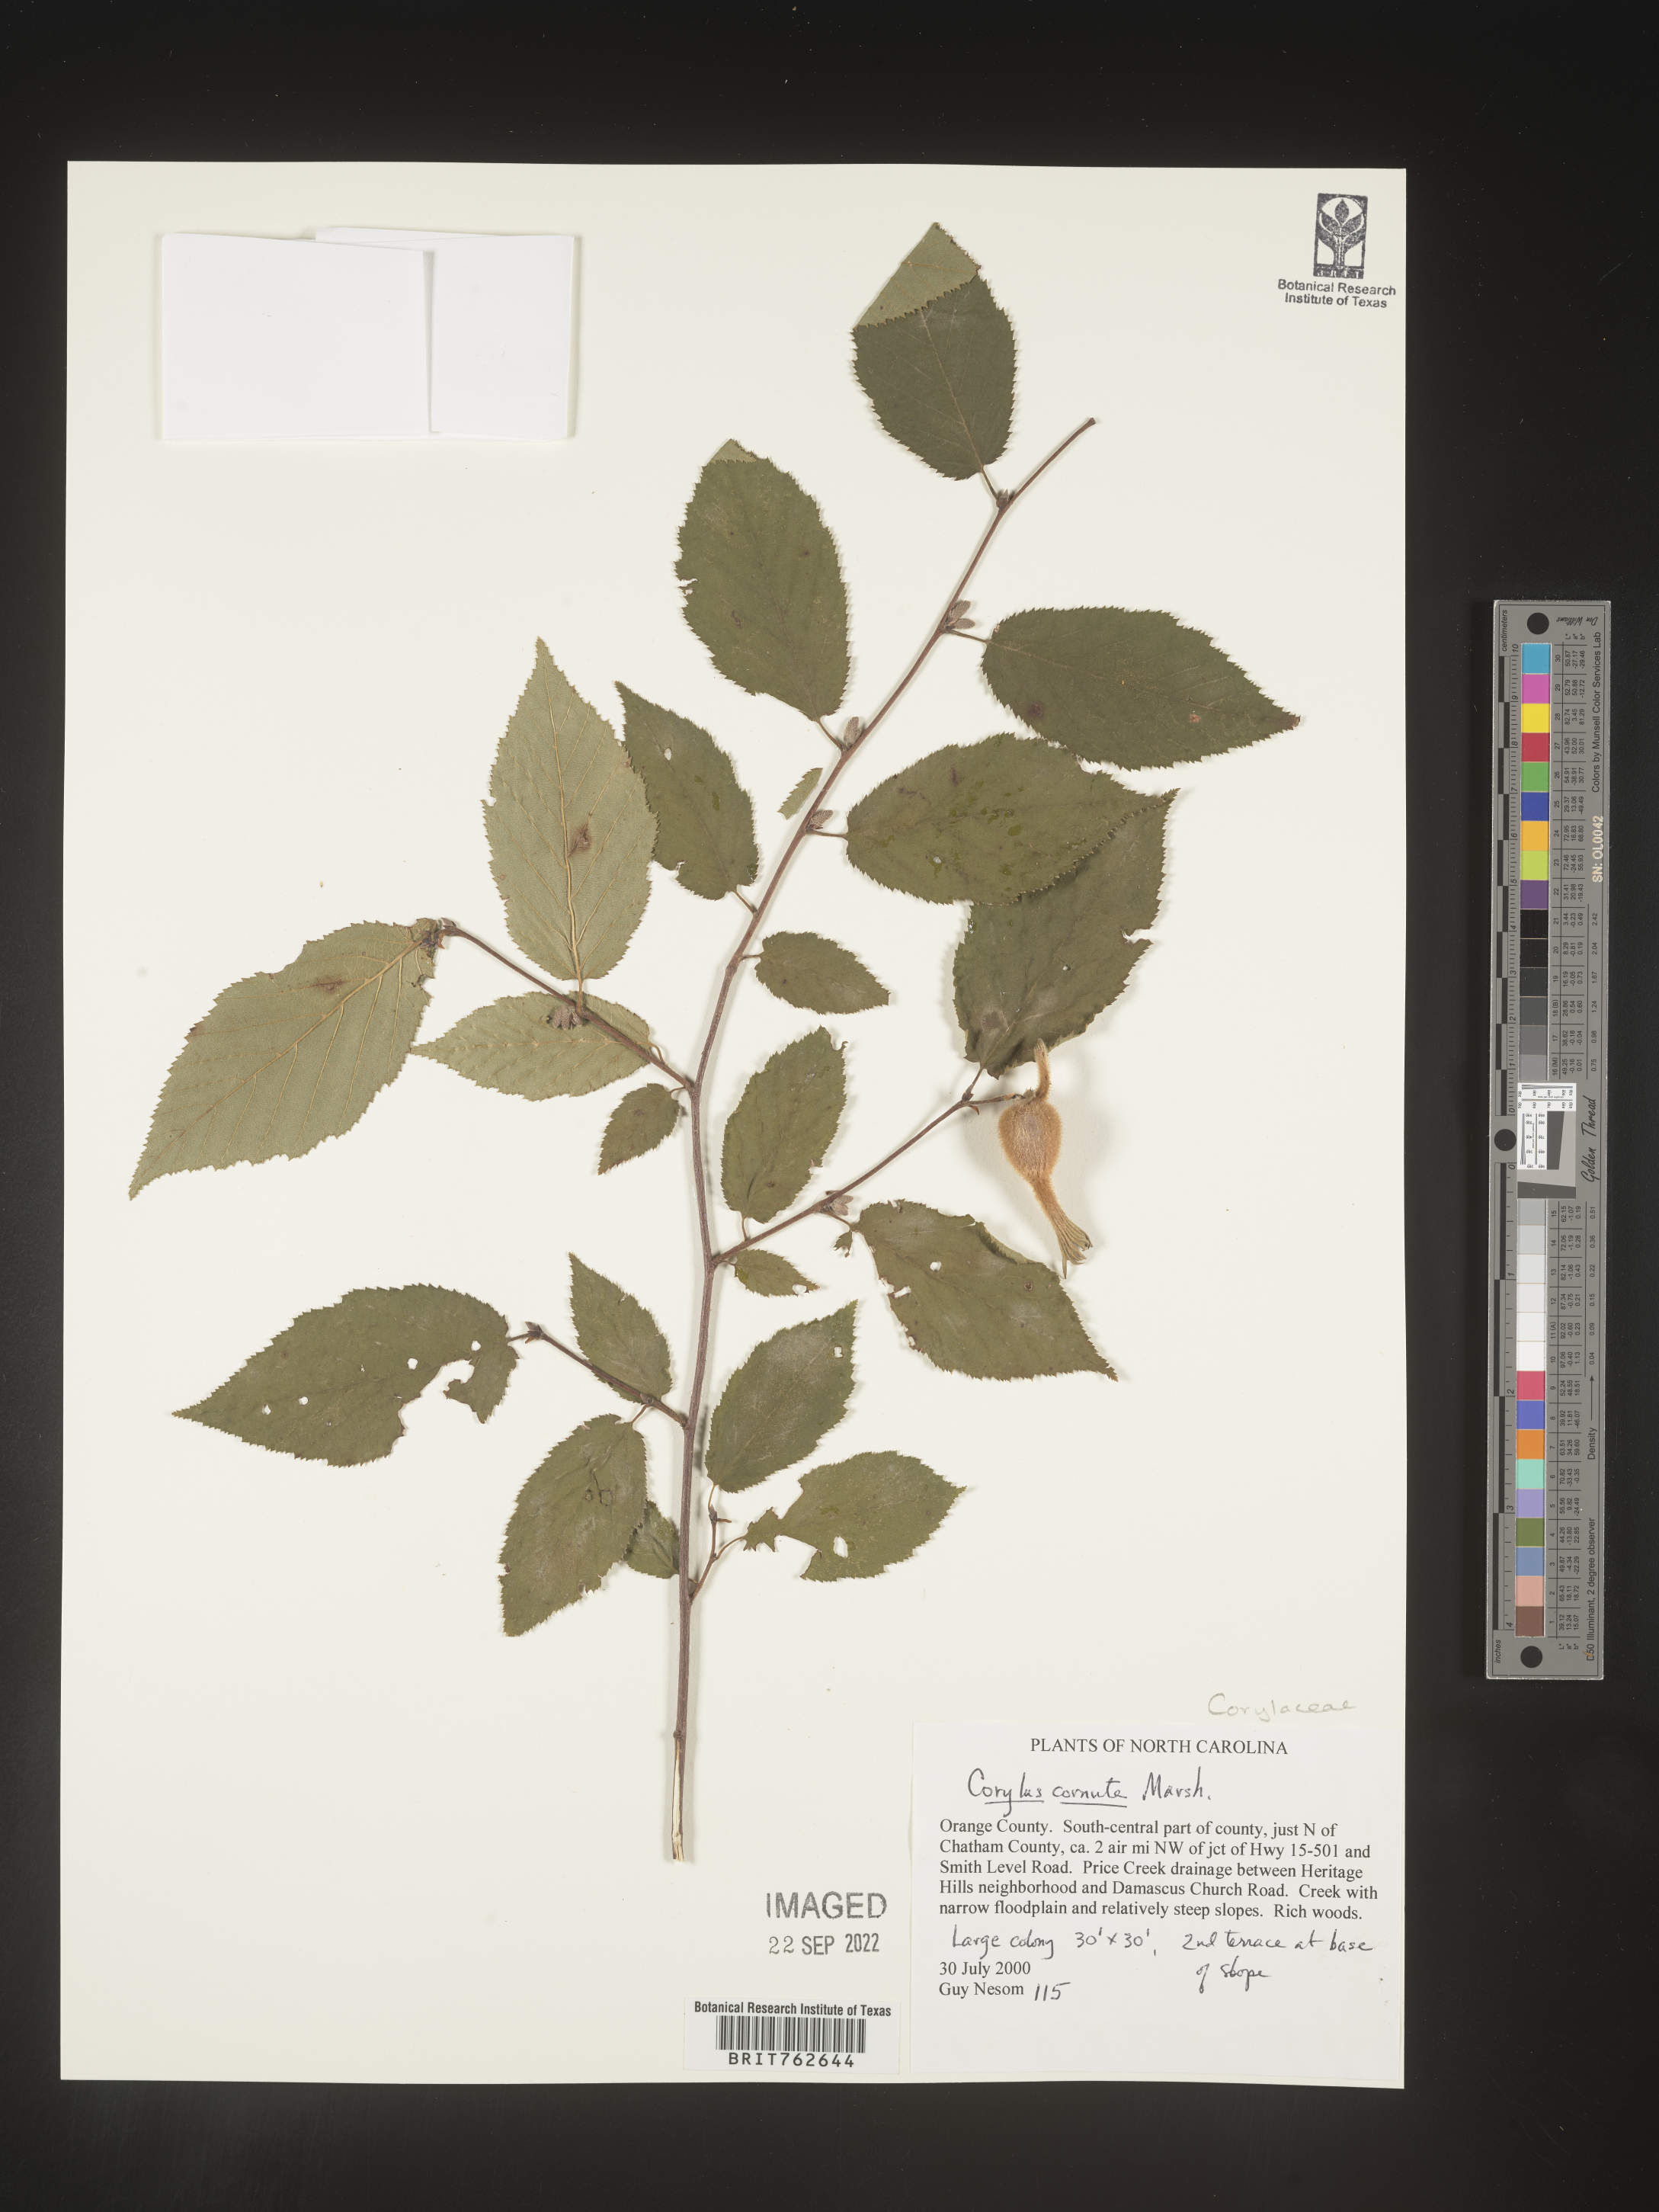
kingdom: Plantae
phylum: Tracheophyta
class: Magnoliopsida
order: Fagales
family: Betulaceae
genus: Corylus
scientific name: Corylus cornuta
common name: Beaked hazel
